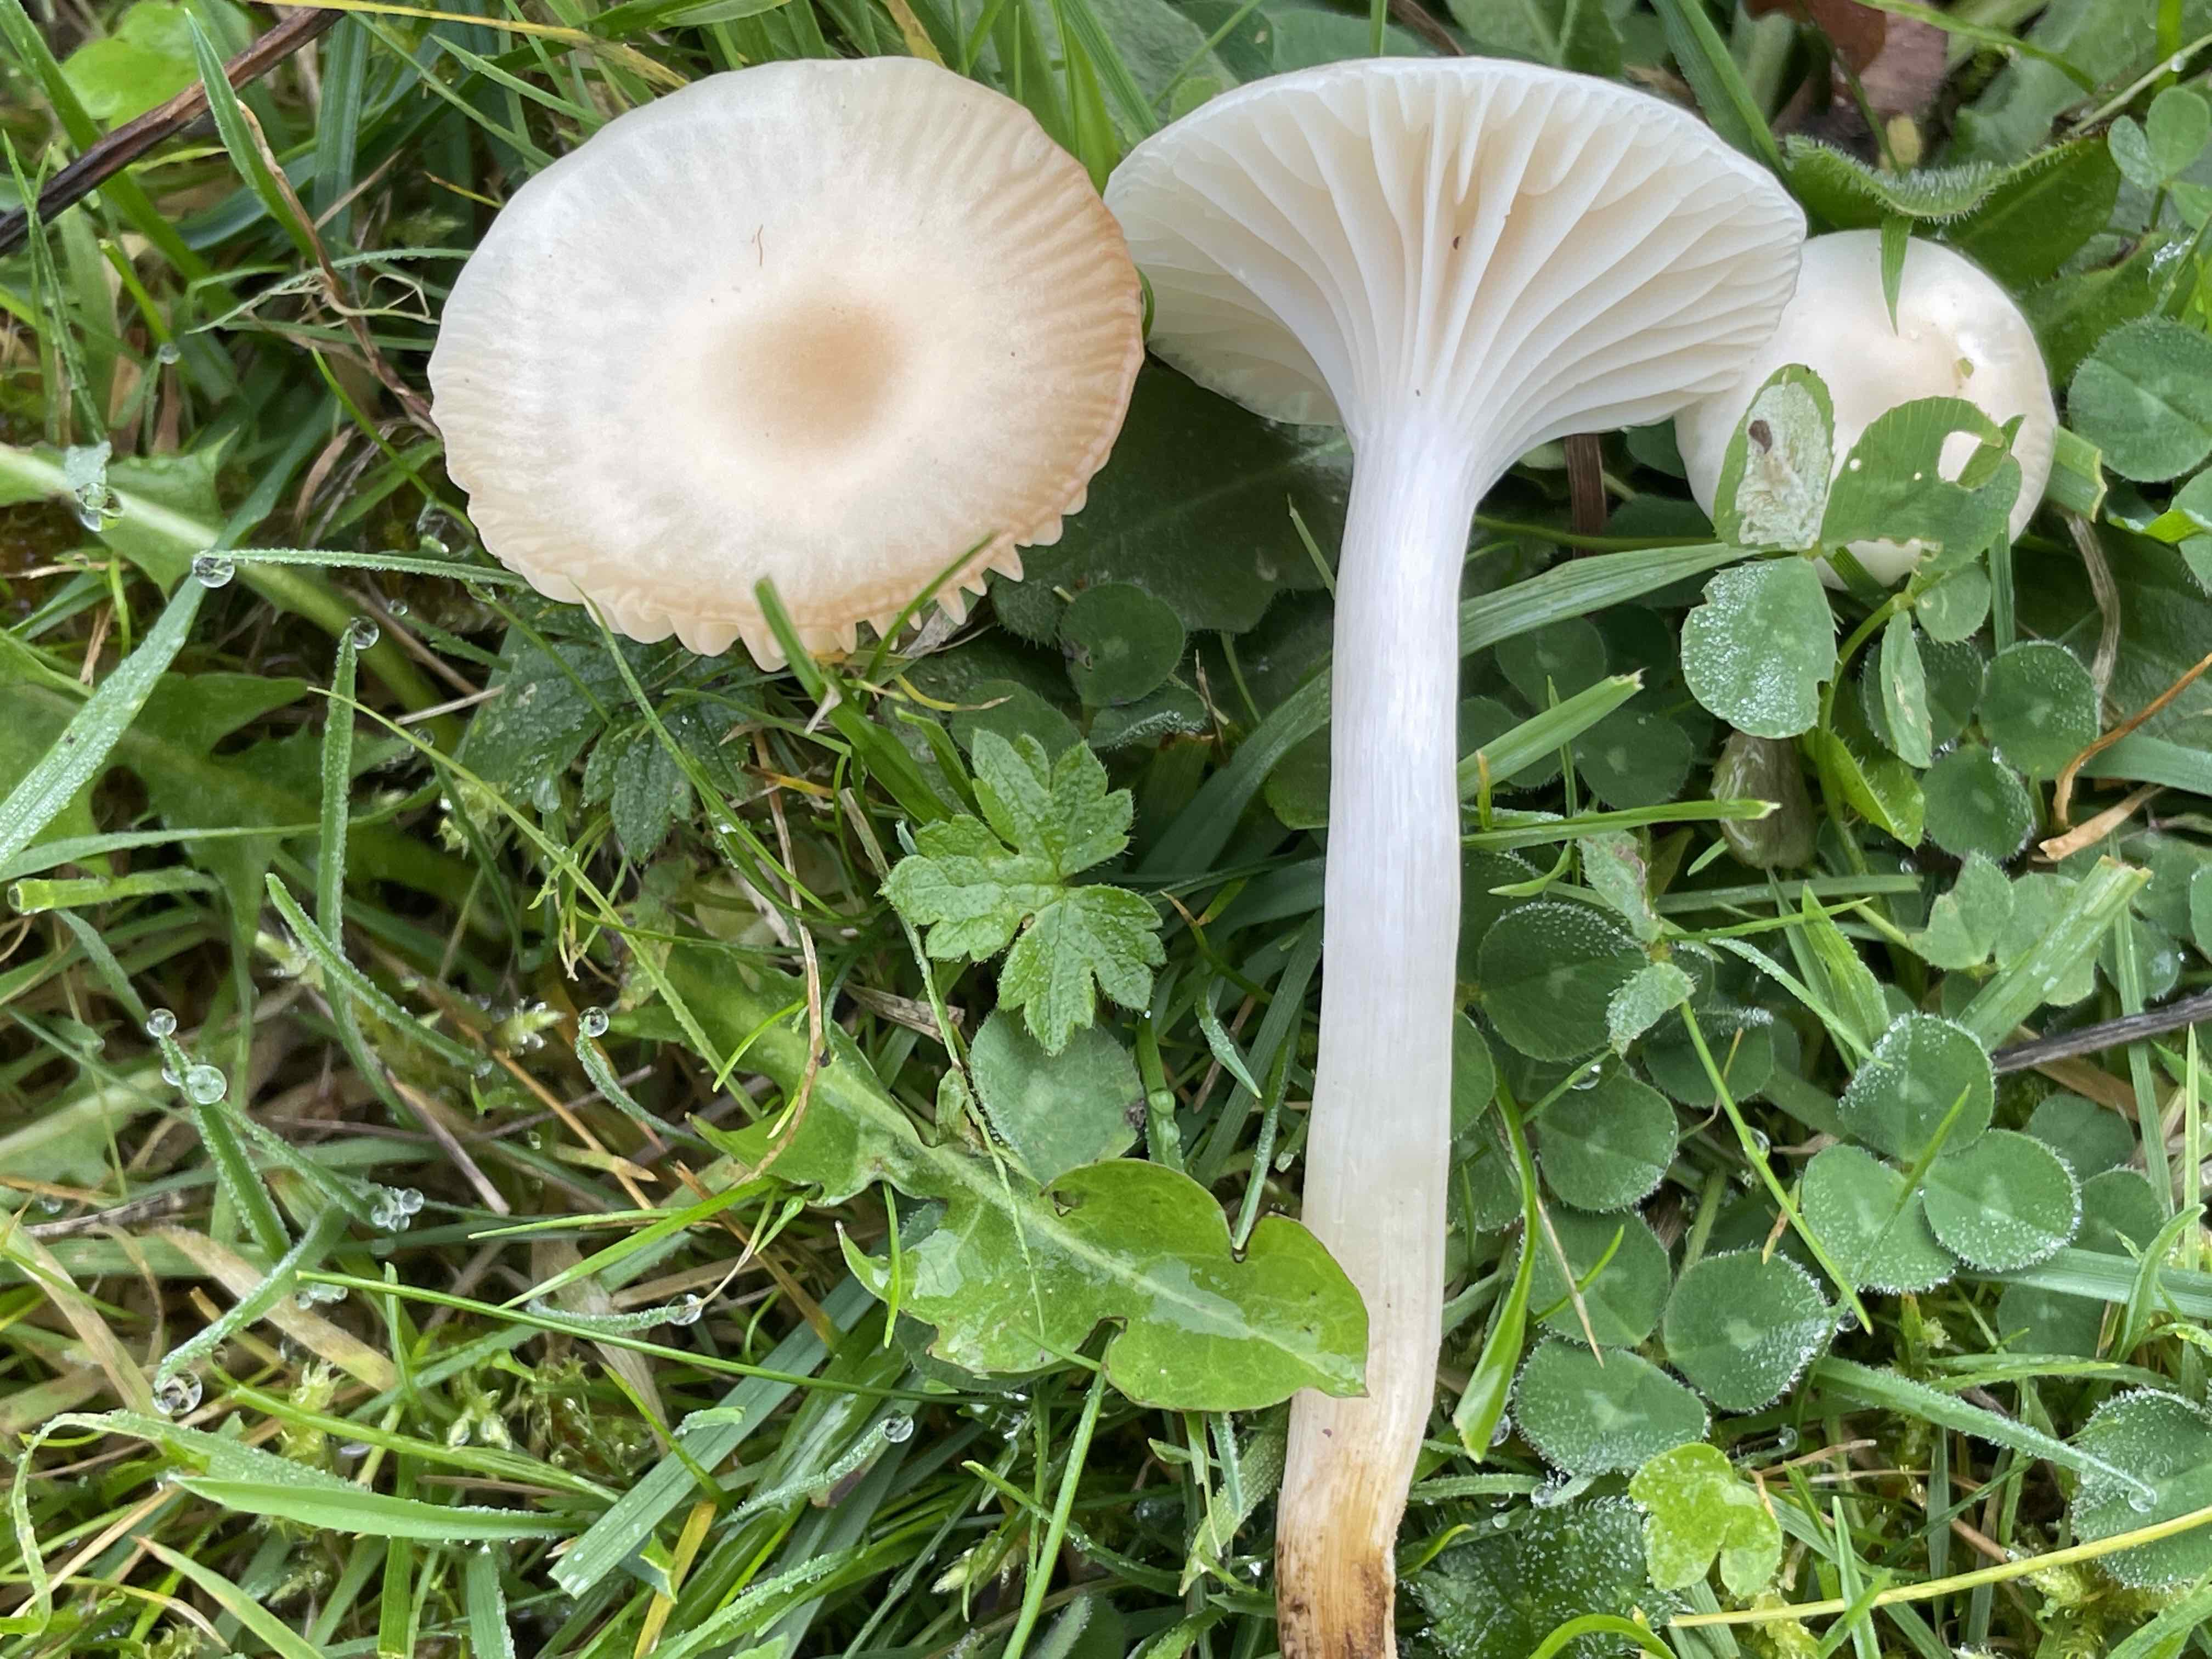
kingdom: Fungi
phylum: Basidiomycota
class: Agaricomycetes
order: Agaricales
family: Hygrophoraceae
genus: Cuphophyllus
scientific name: Cuphophyllus
